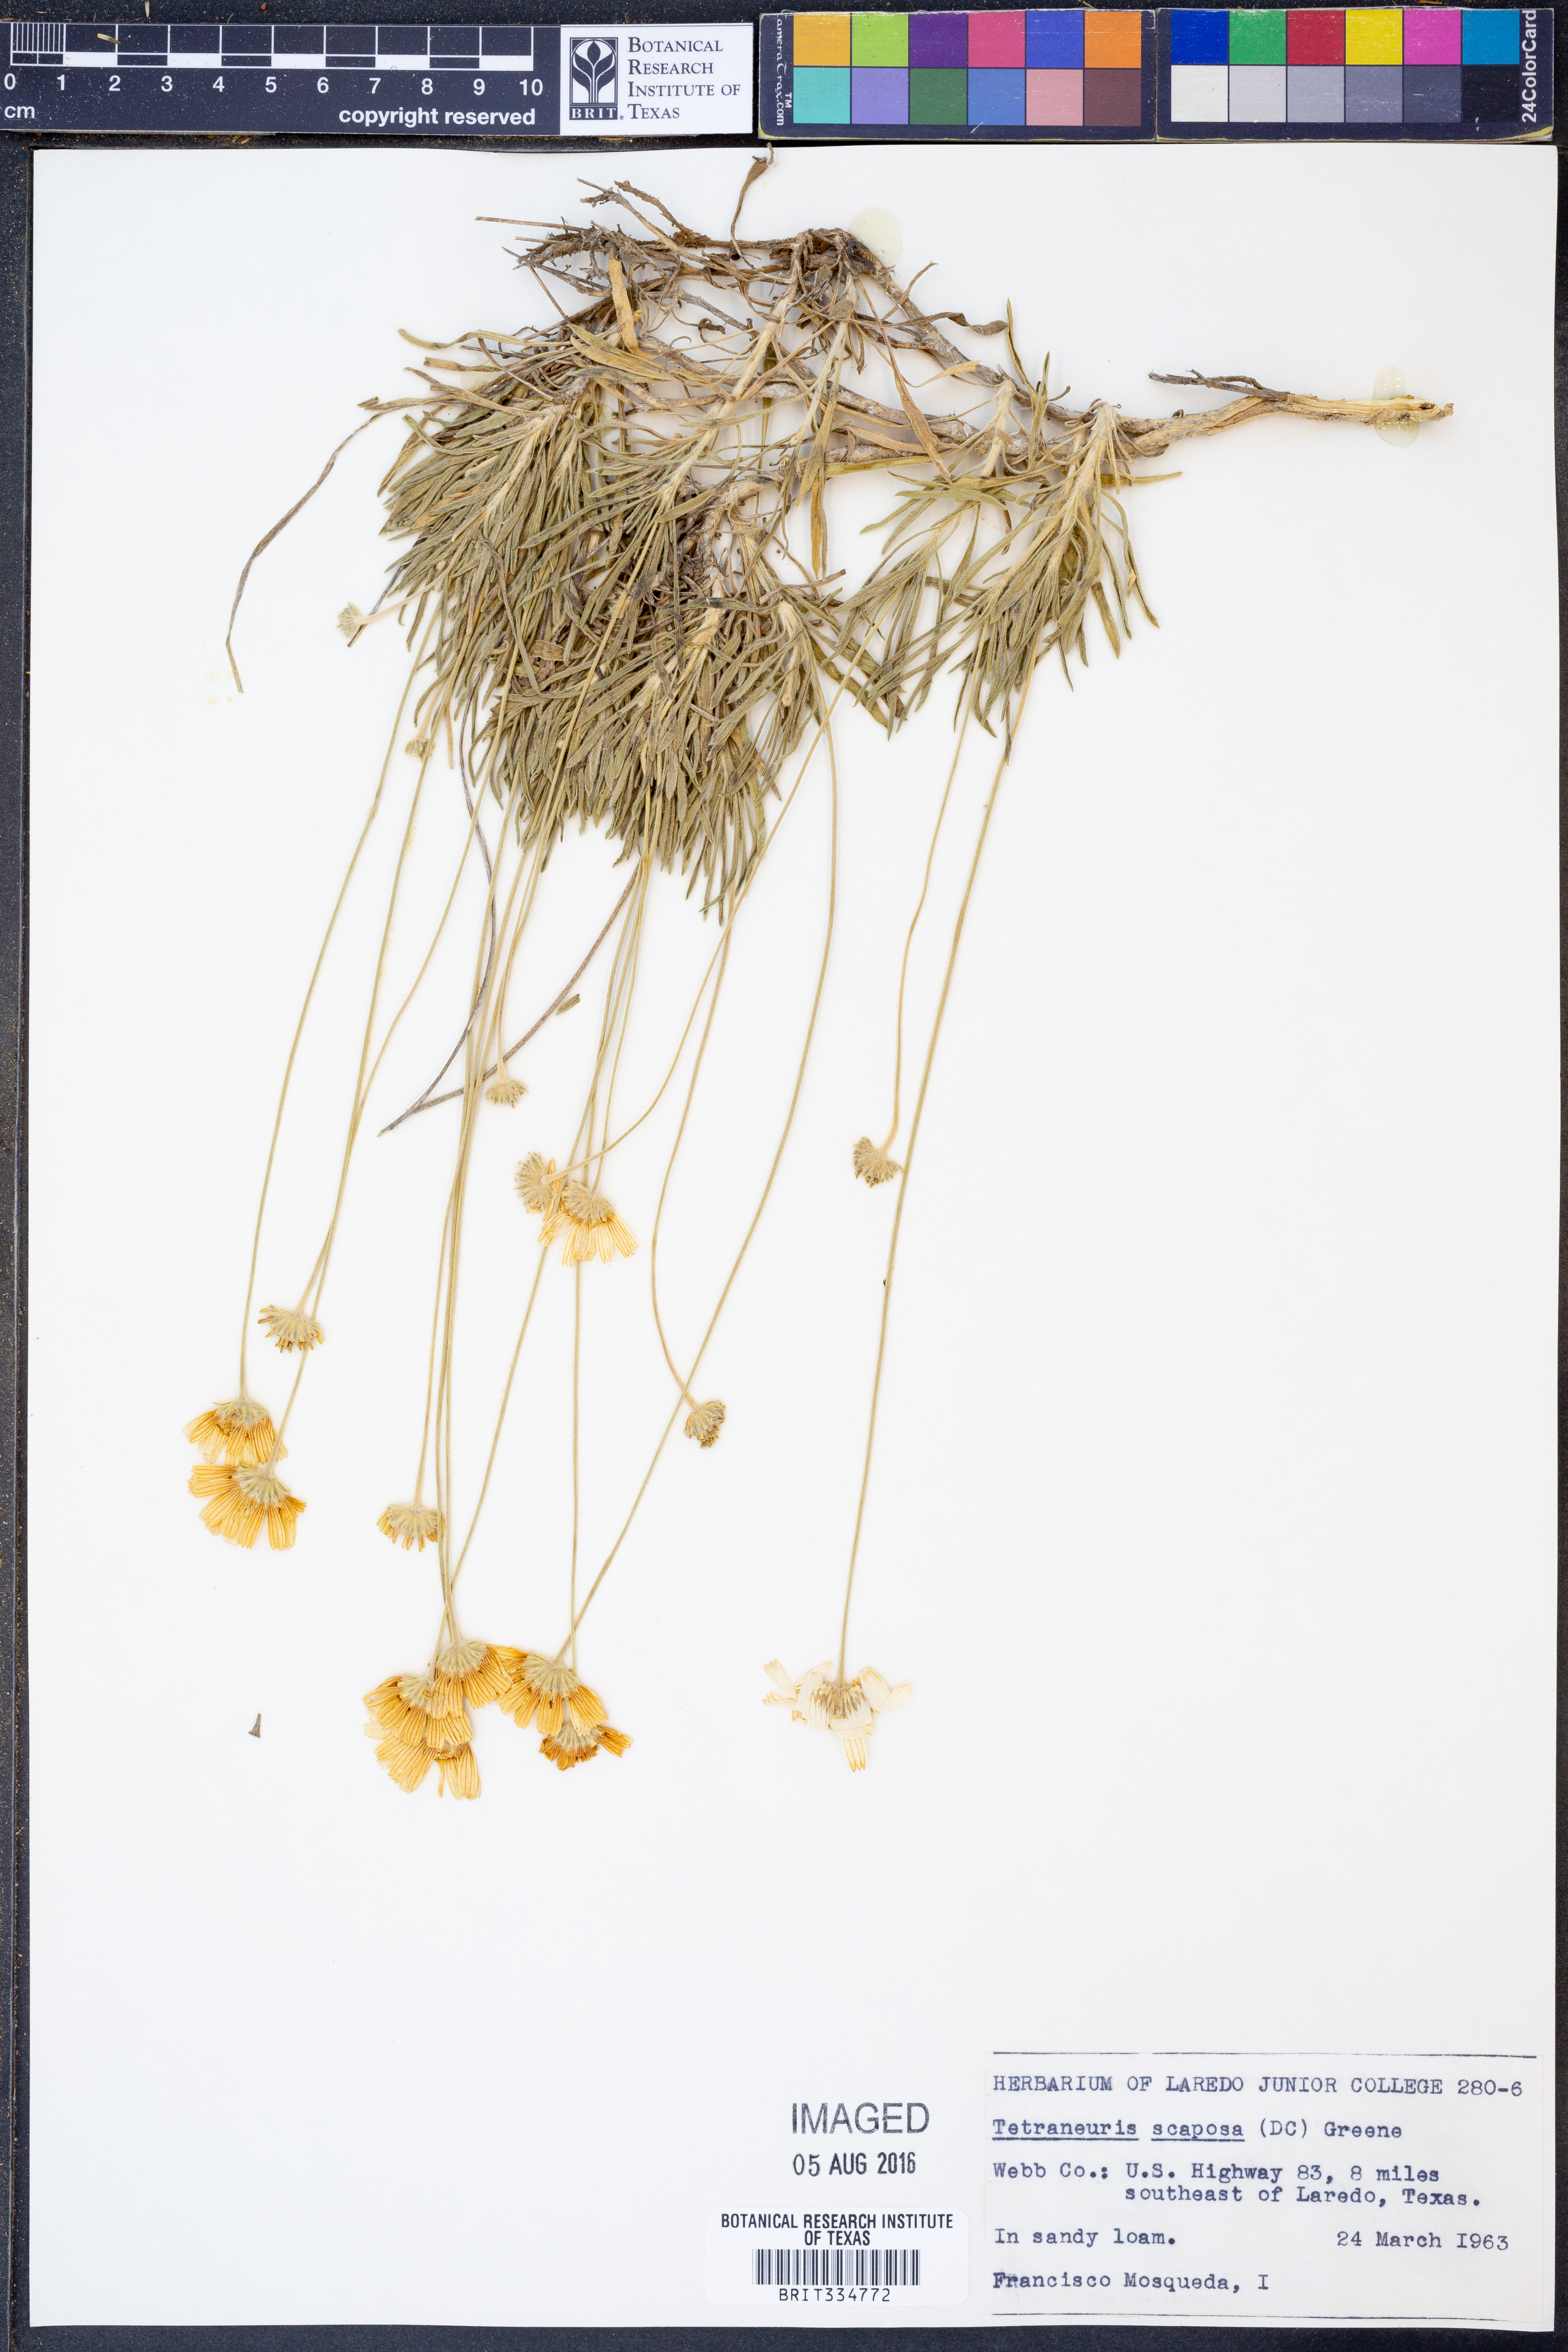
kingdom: Plantae
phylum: Tracheophyta
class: Magnoliopsida
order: Asterales
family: Asteraceae
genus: Tetraneuris
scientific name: Tetraneuris scaposa
